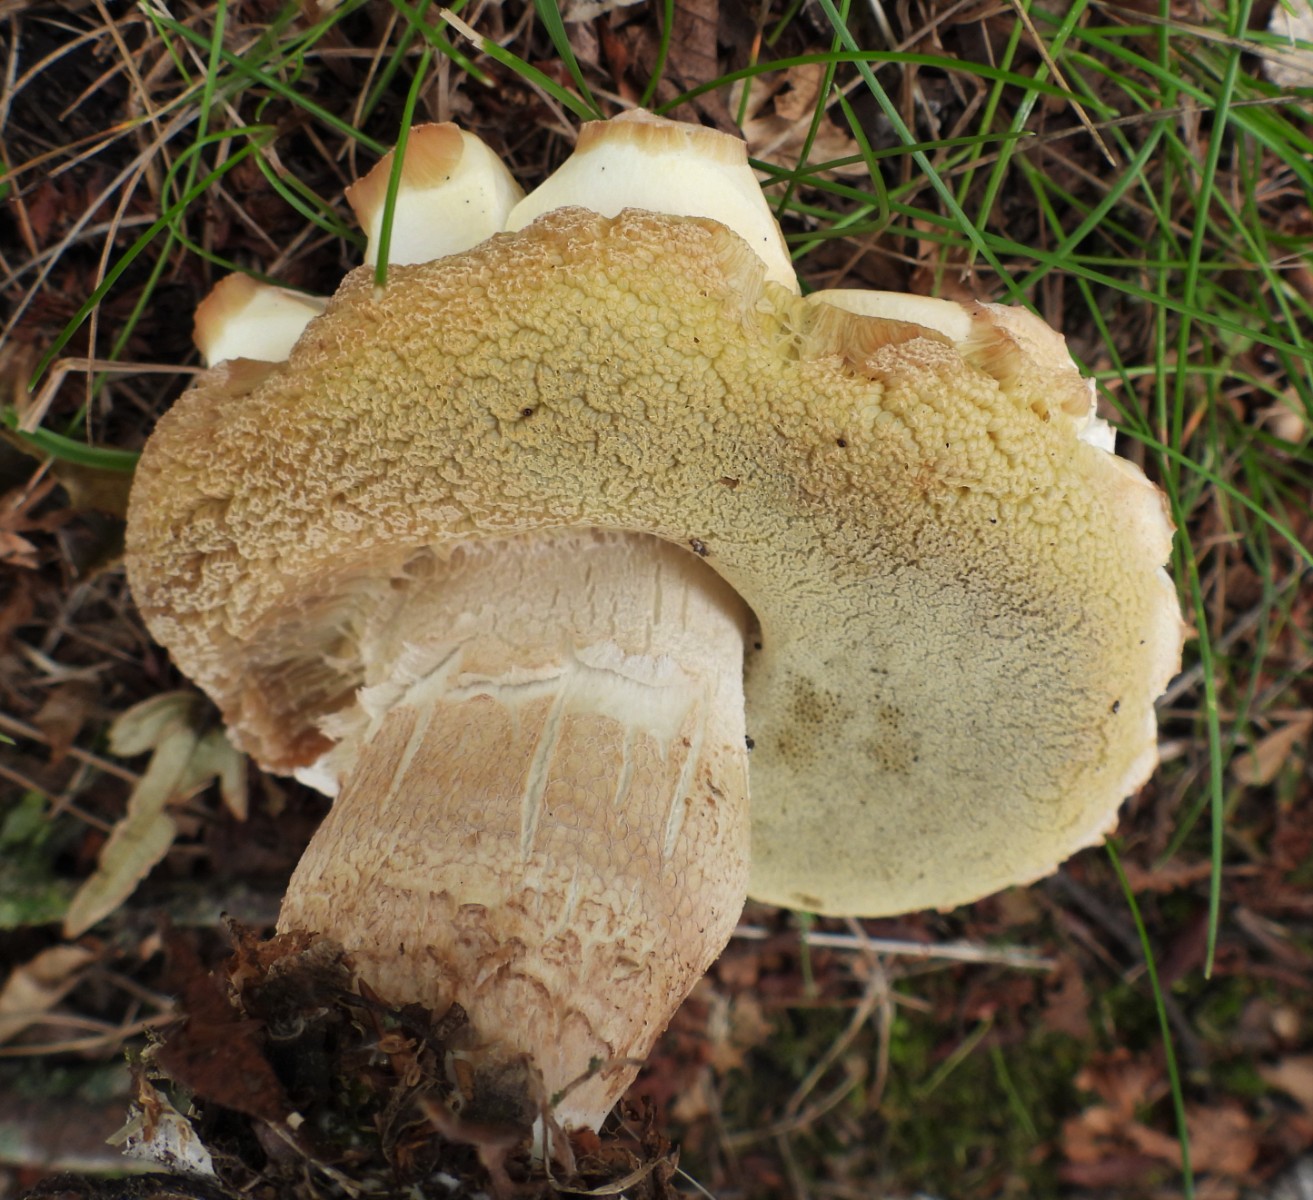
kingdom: Fungi
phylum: Basidiomycota
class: Agaricomycetes
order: Boletales
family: Boletaceae
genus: Boletus
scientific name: Boletus reticulatus
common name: sommer-rørhat
